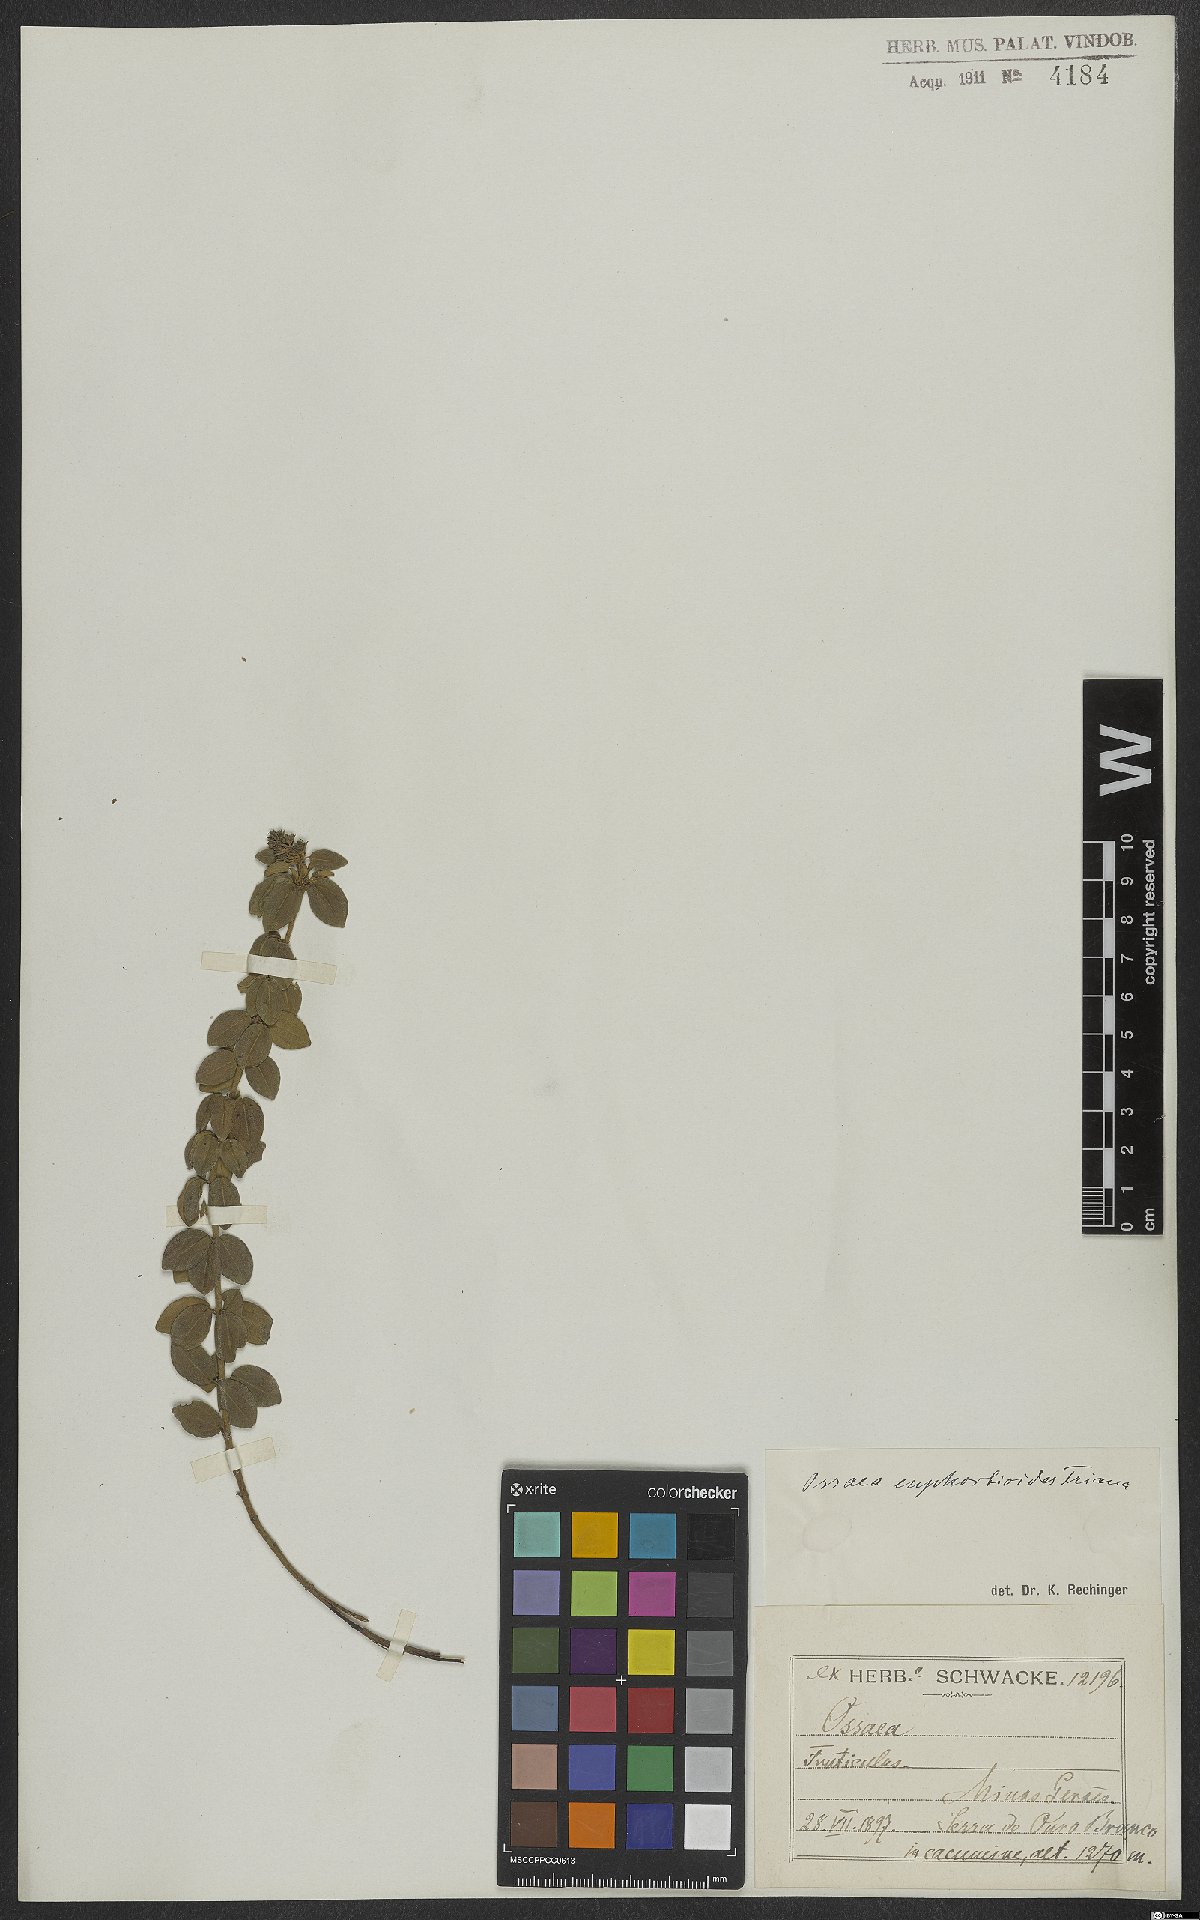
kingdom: Plantae
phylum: Tracheophyta
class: Magnoliopsida
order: Myrtales
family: Melastomataceae
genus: Miconia
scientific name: Miconia euphorbioides
